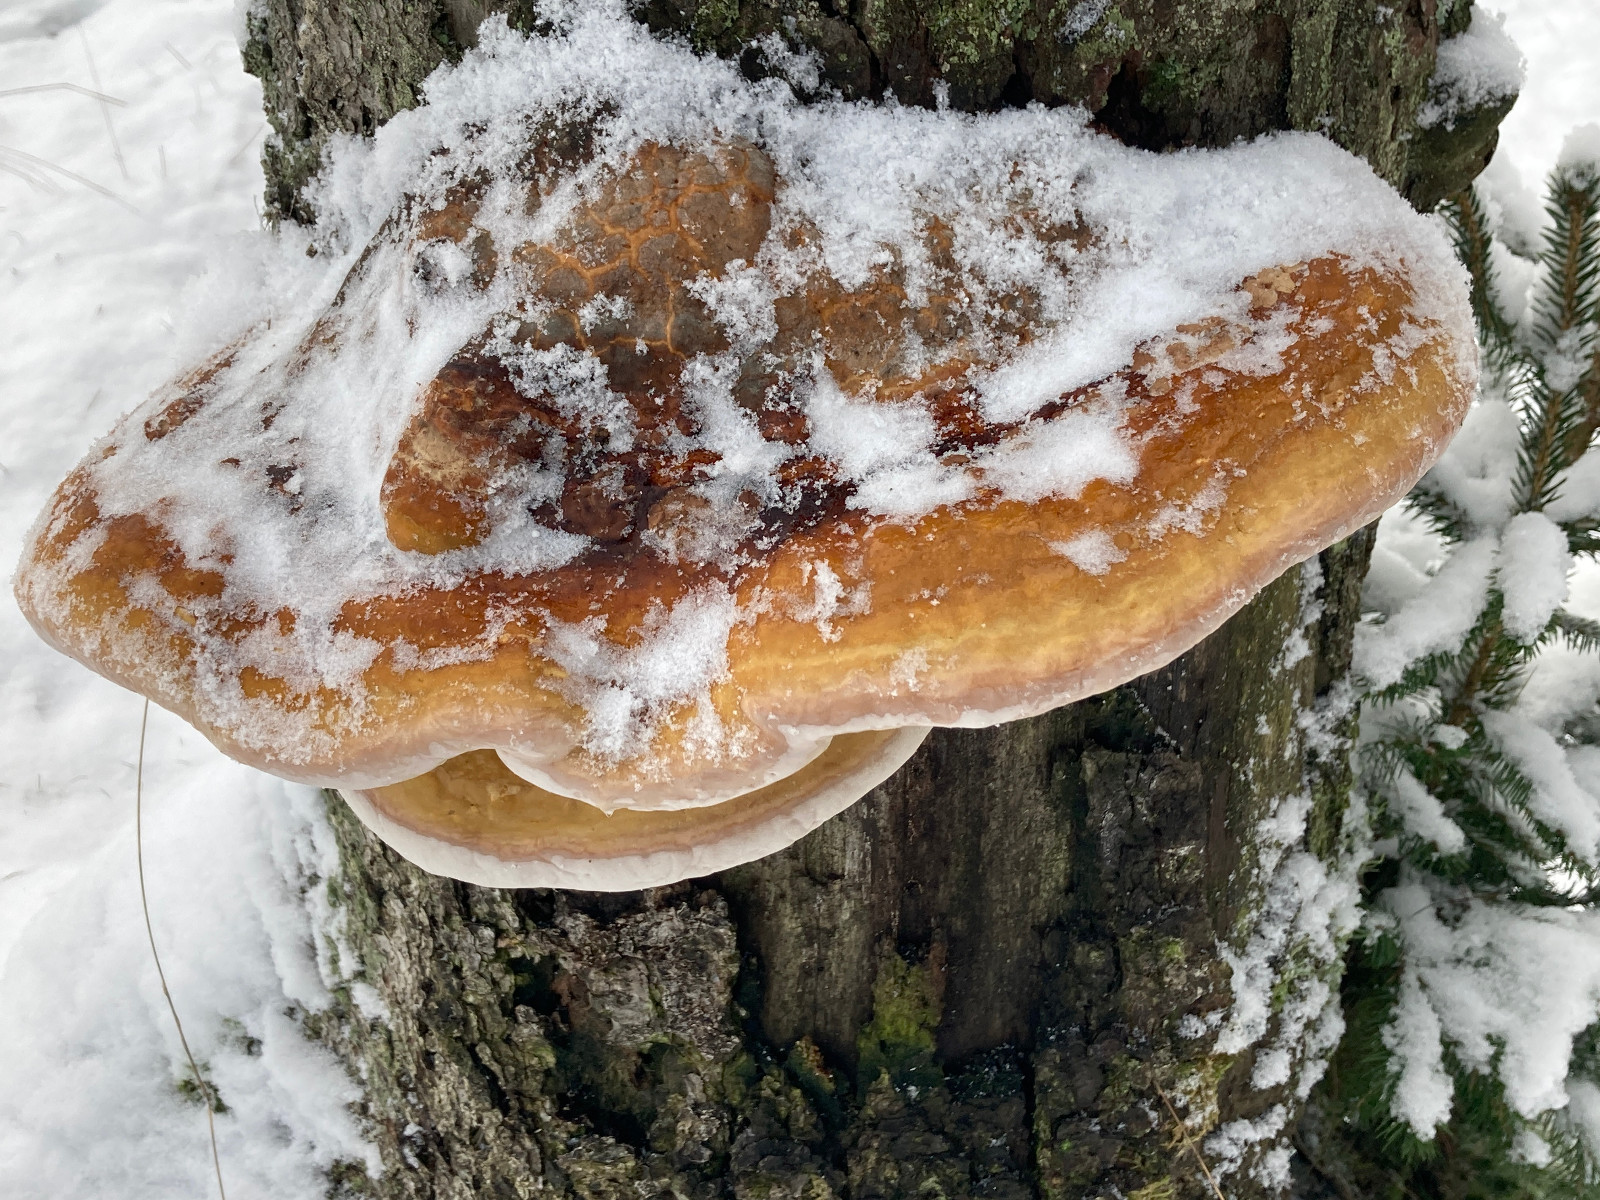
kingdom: Fungi
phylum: Basidiomycota
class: Agaricomycetes
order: Polyporales
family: Fomitopsidaceae
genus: Fomitopsis
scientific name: Fomitopsis pinicola
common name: randbæltet hovporesvamp
